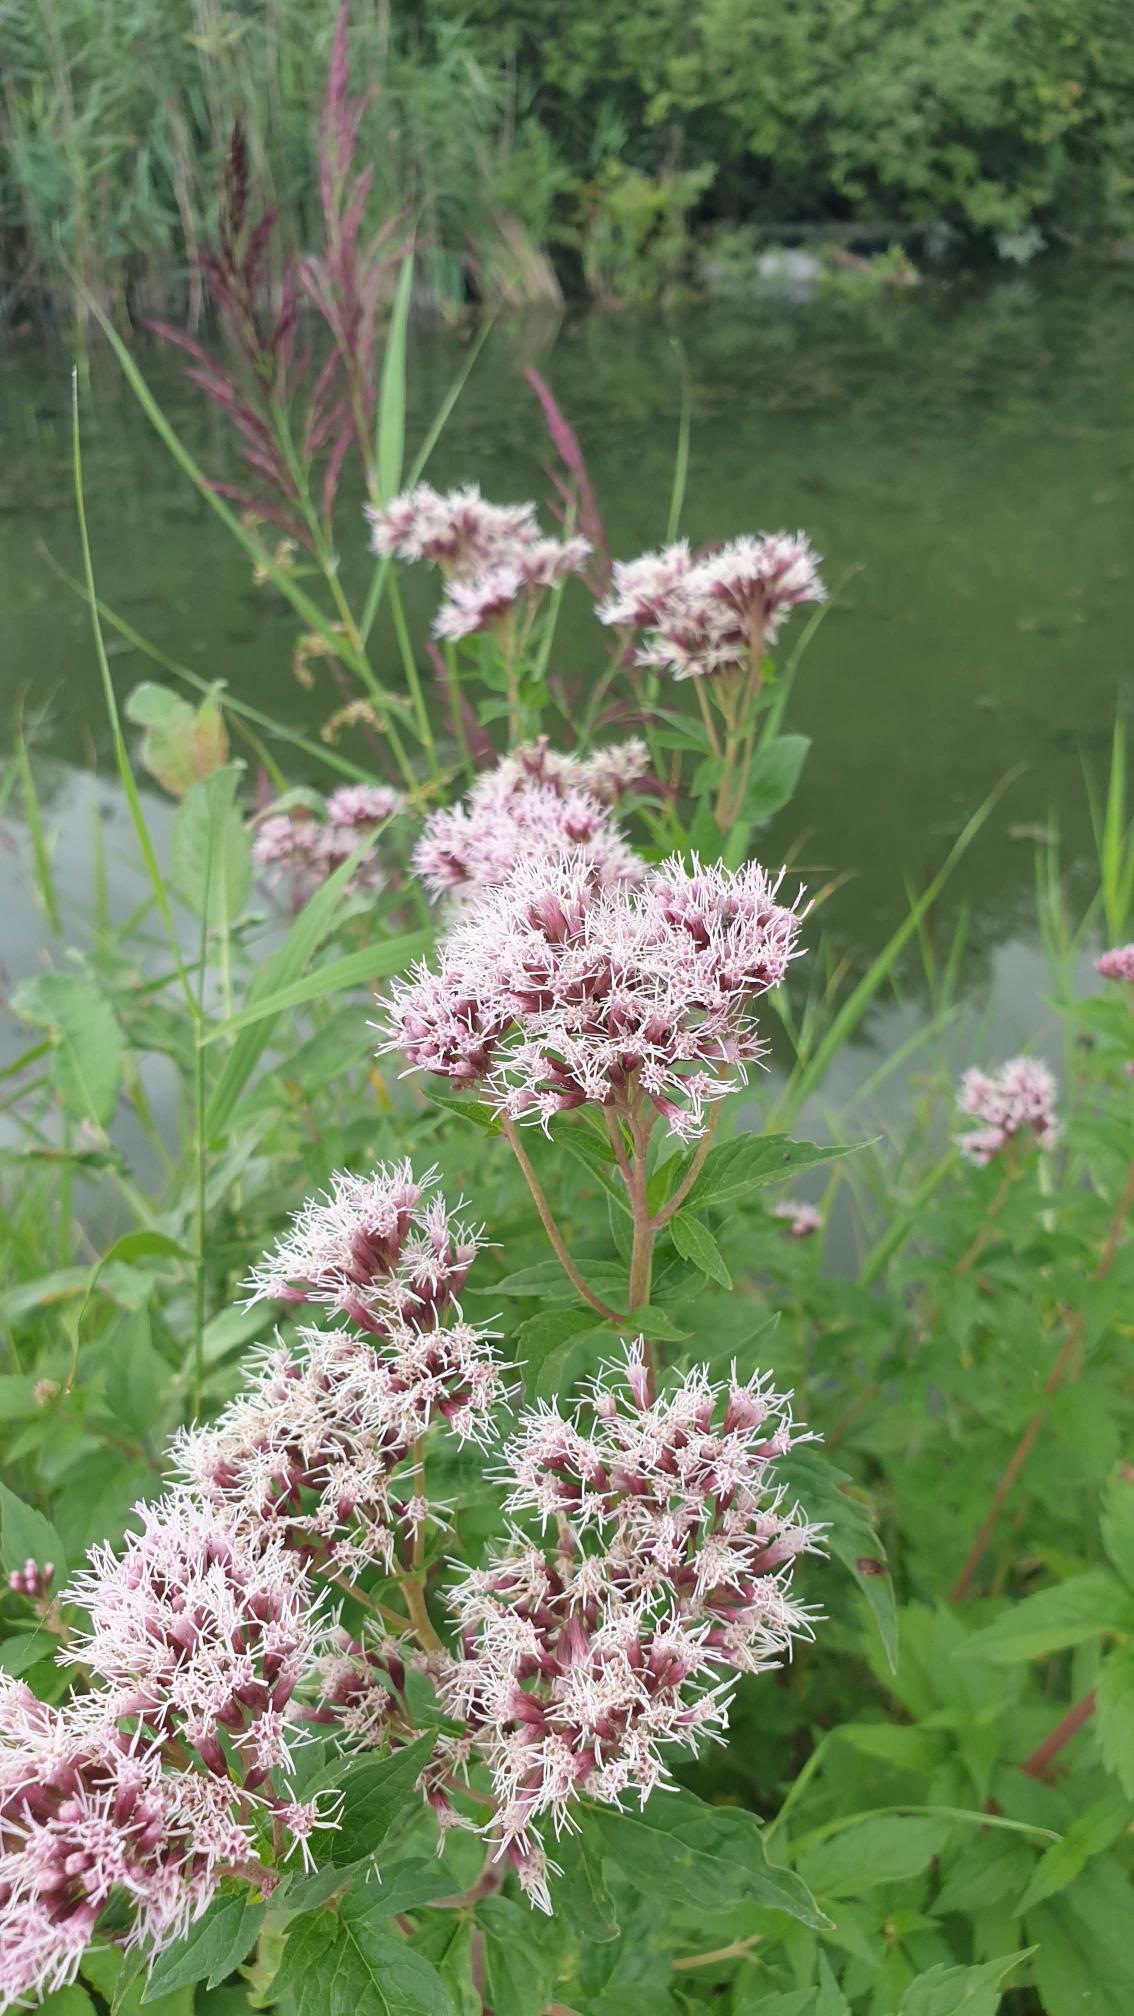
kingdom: Plantae
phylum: Tracheophyta
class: Magnoliopsida
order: Asterales
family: Asteraceae
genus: Eupatorium
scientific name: Eupatorium cannabinum
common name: Hjortetrøst
